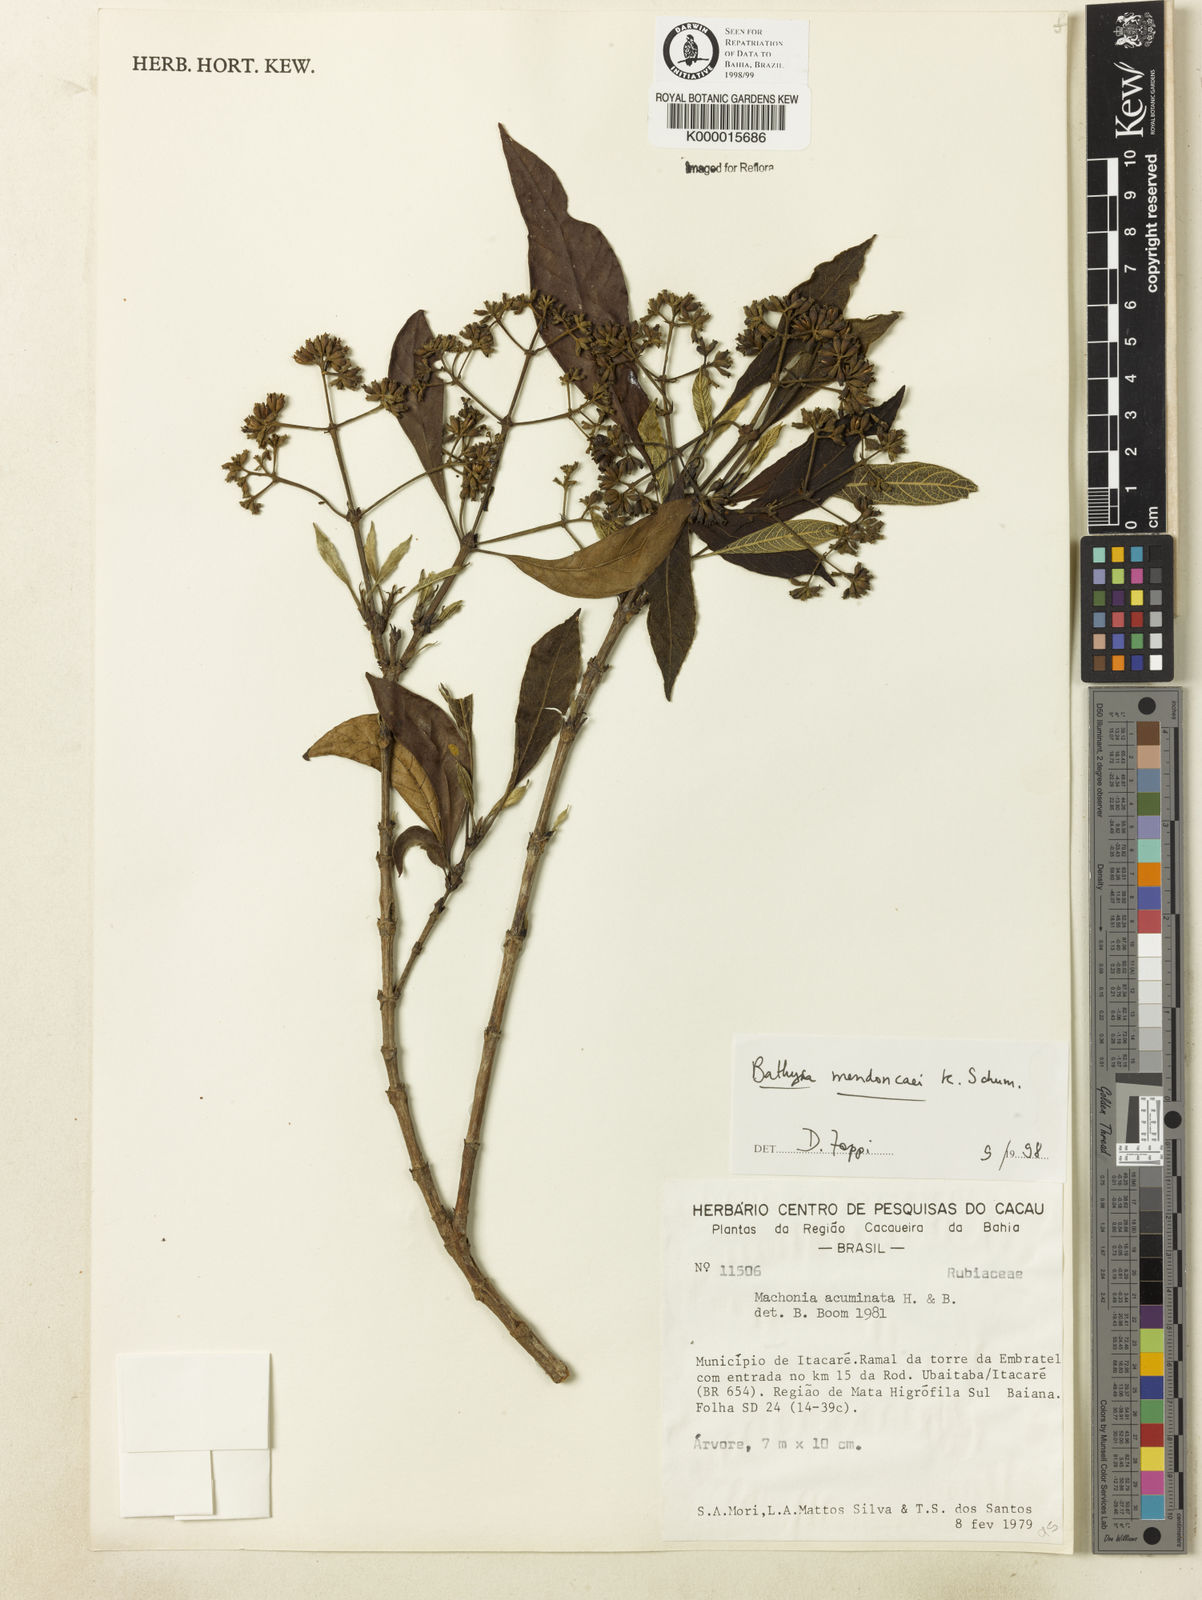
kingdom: Plantae
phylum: Tracheophyta
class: Magnoliopsida
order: Gentianales
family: Rubiaceae
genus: Bathysa
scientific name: Bathysa
